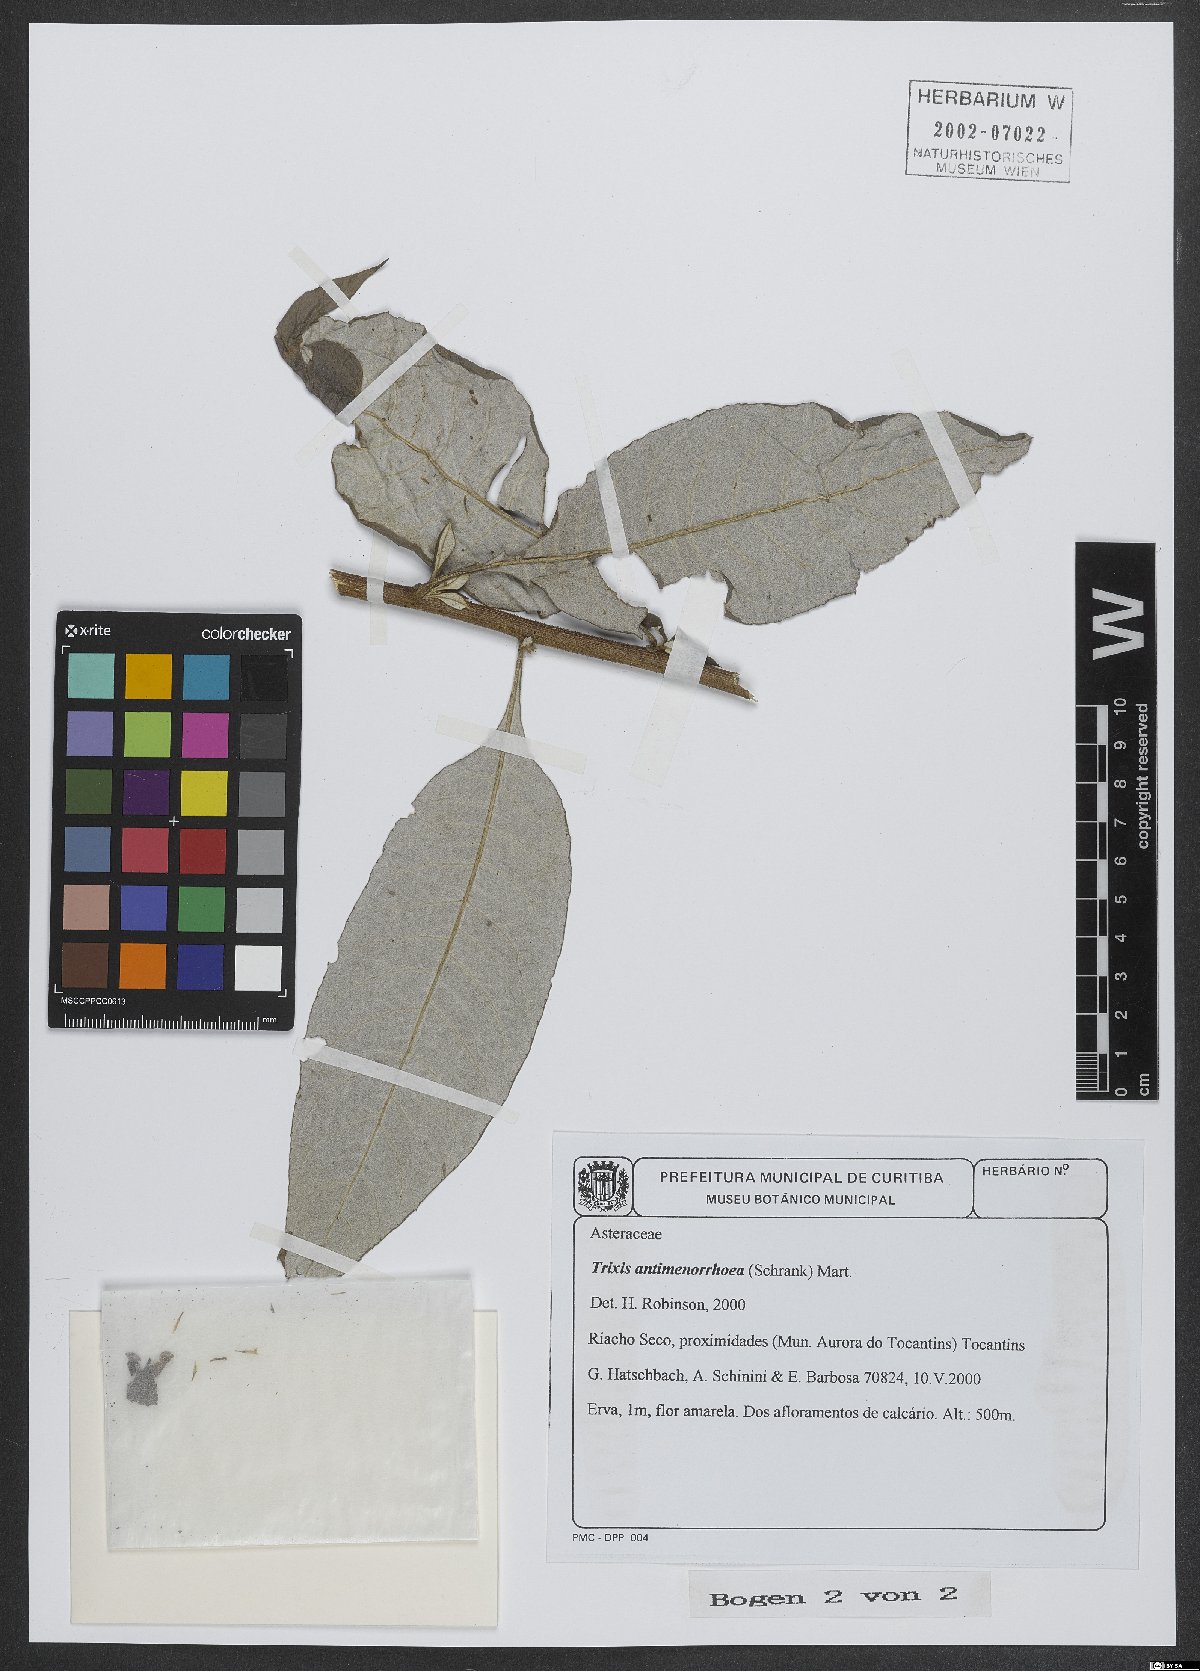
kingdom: Plantae
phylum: Tracheophyta
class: Magnoliopsida
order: Asterales
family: Asteraceae
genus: Trixis
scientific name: Trixis divaricata
